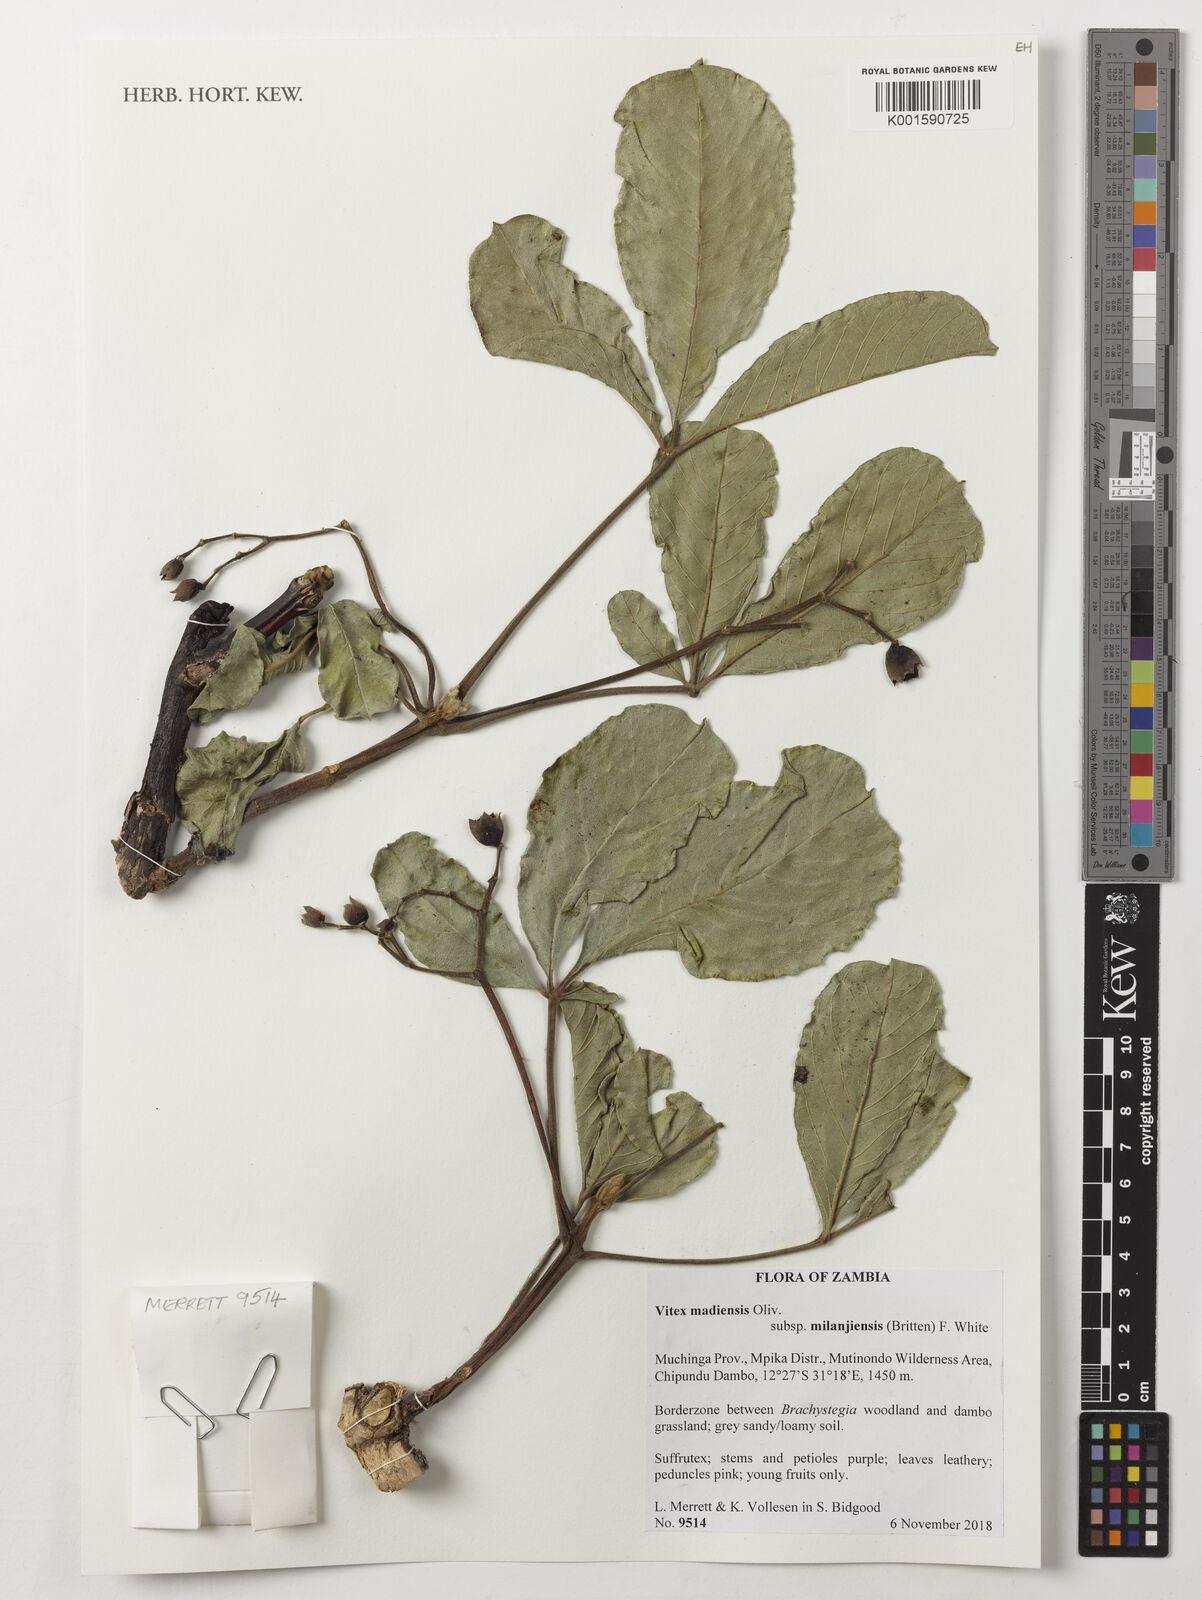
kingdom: Plantae
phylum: Tracheophyta
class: Magnoliopsida
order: Lamiales
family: Lamiaceae
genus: Vitex
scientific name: Vitex madiensis
